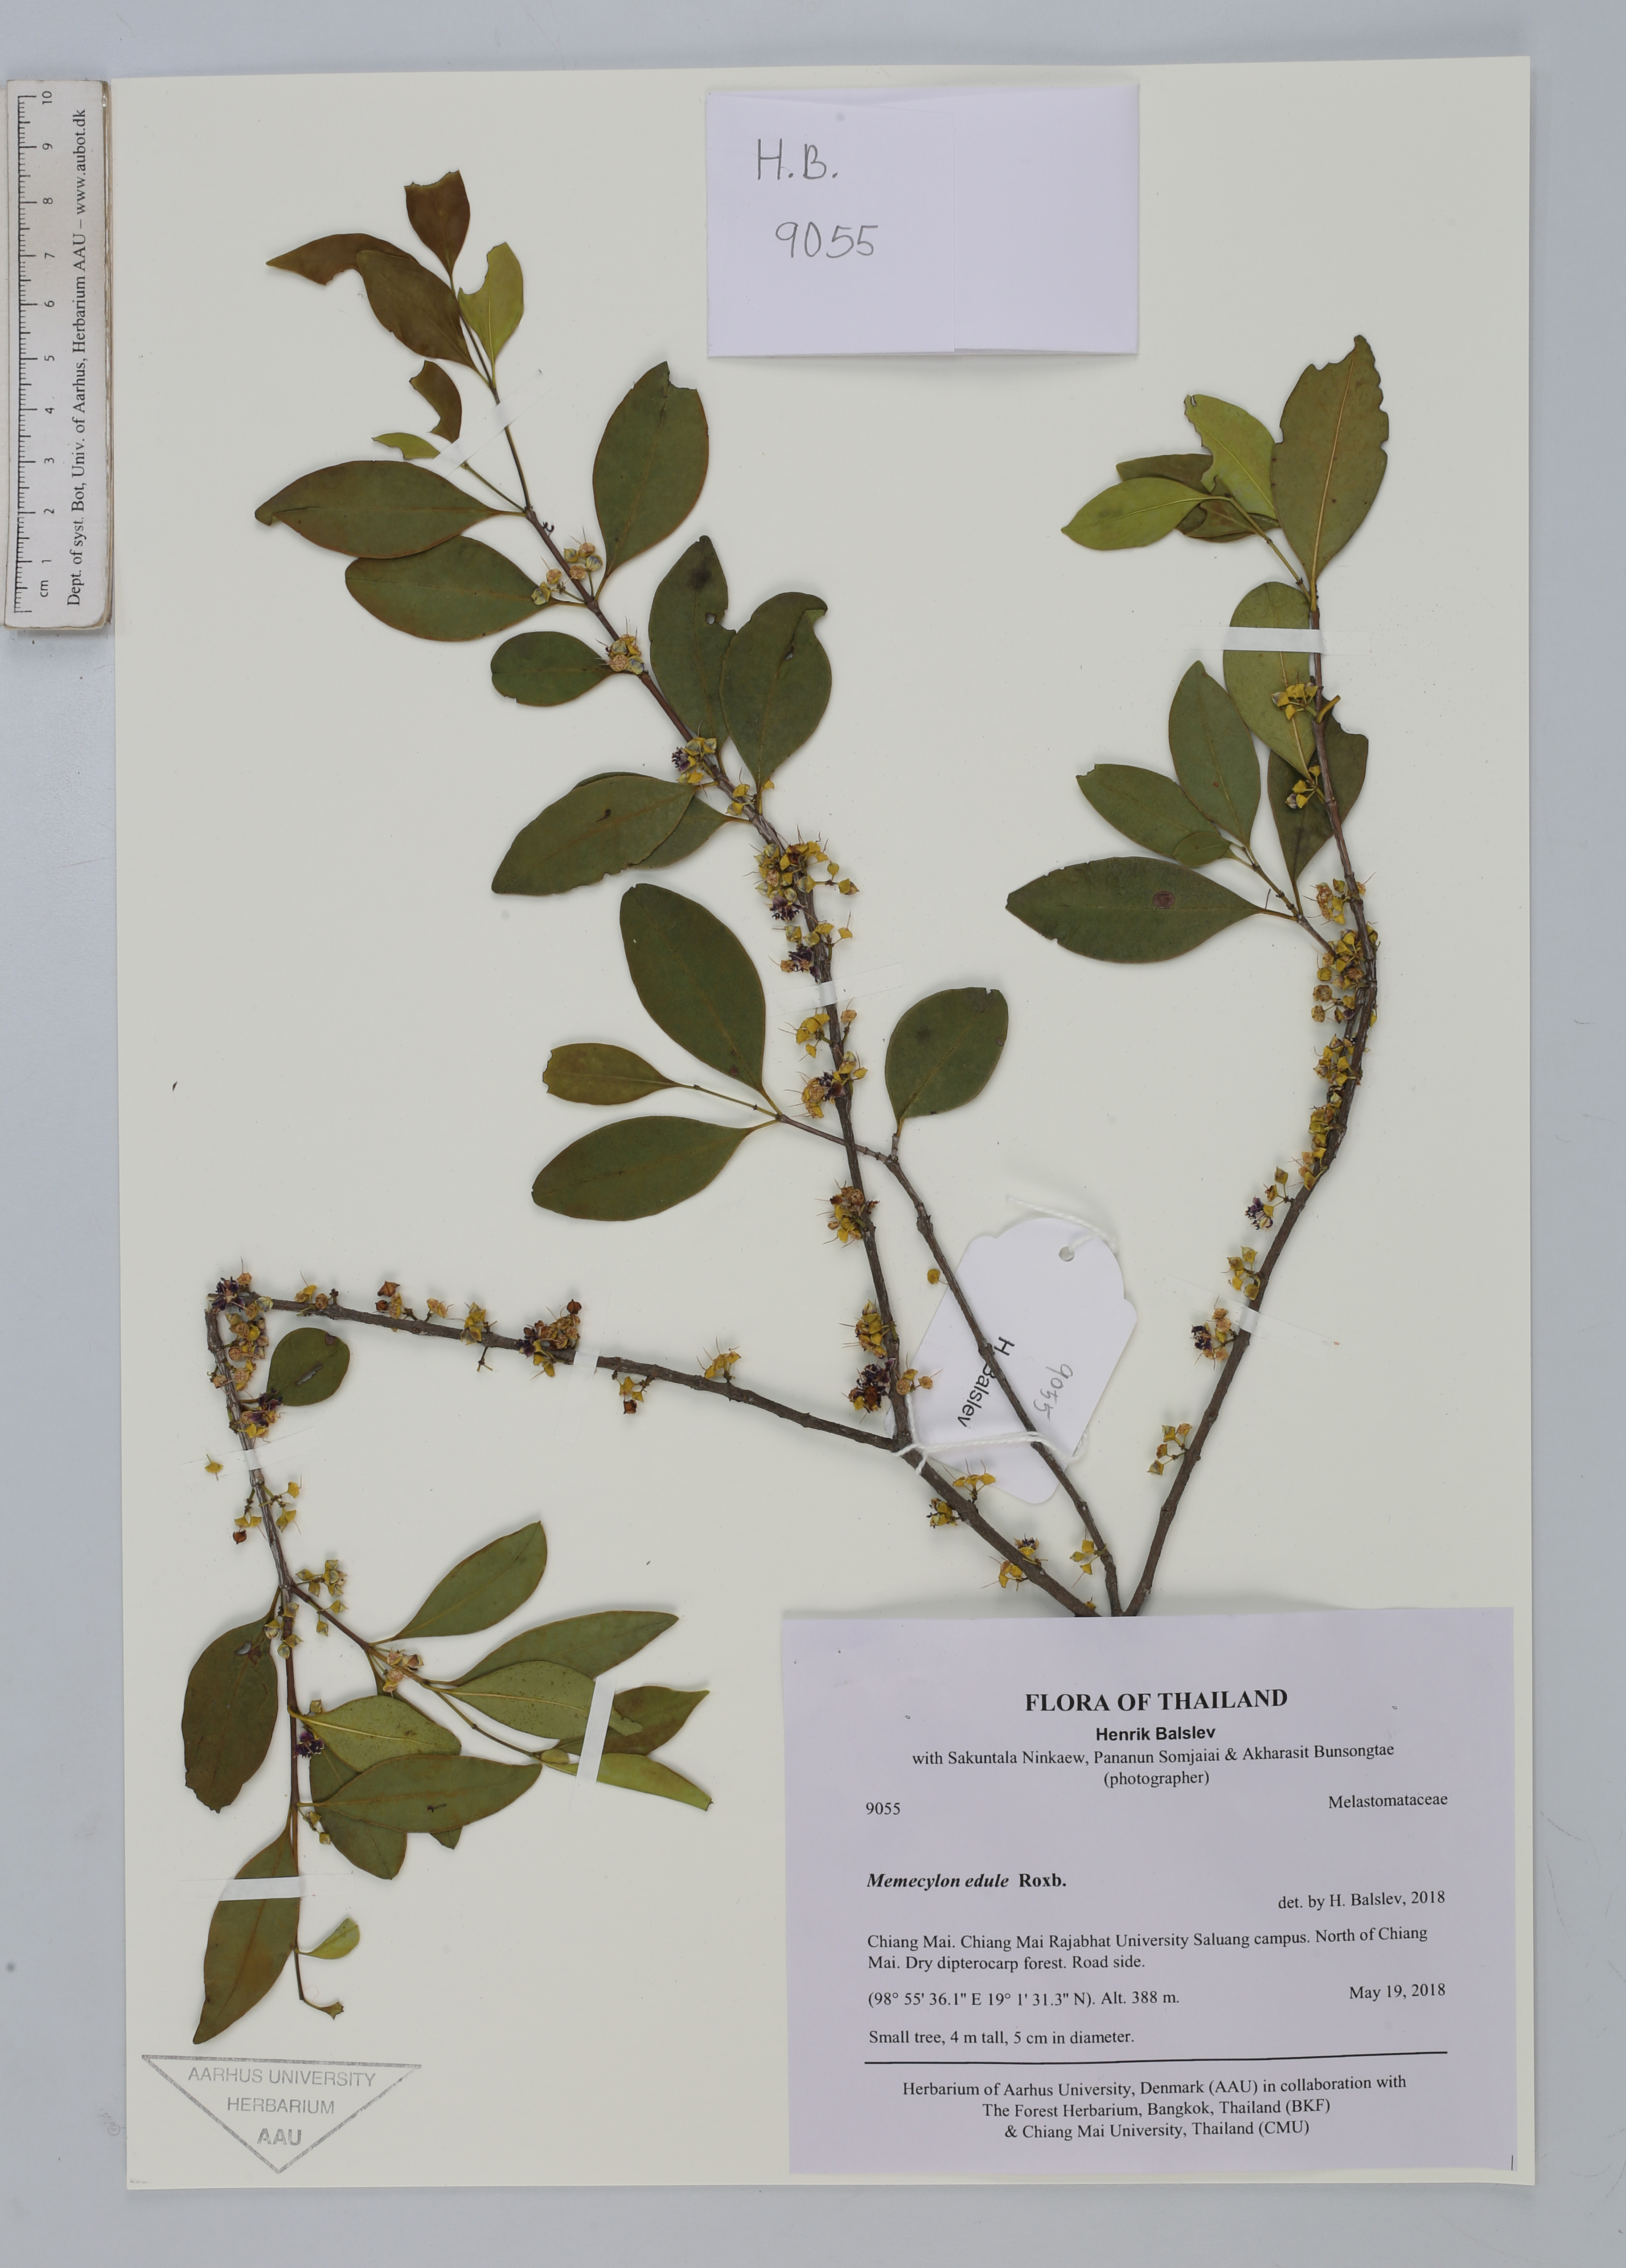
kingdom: Plantae
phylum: Tracheophyta
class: Magnoliopsida
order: Myrtales
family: Melastomataceae
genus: Memecylon
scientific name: Memecylon edule
